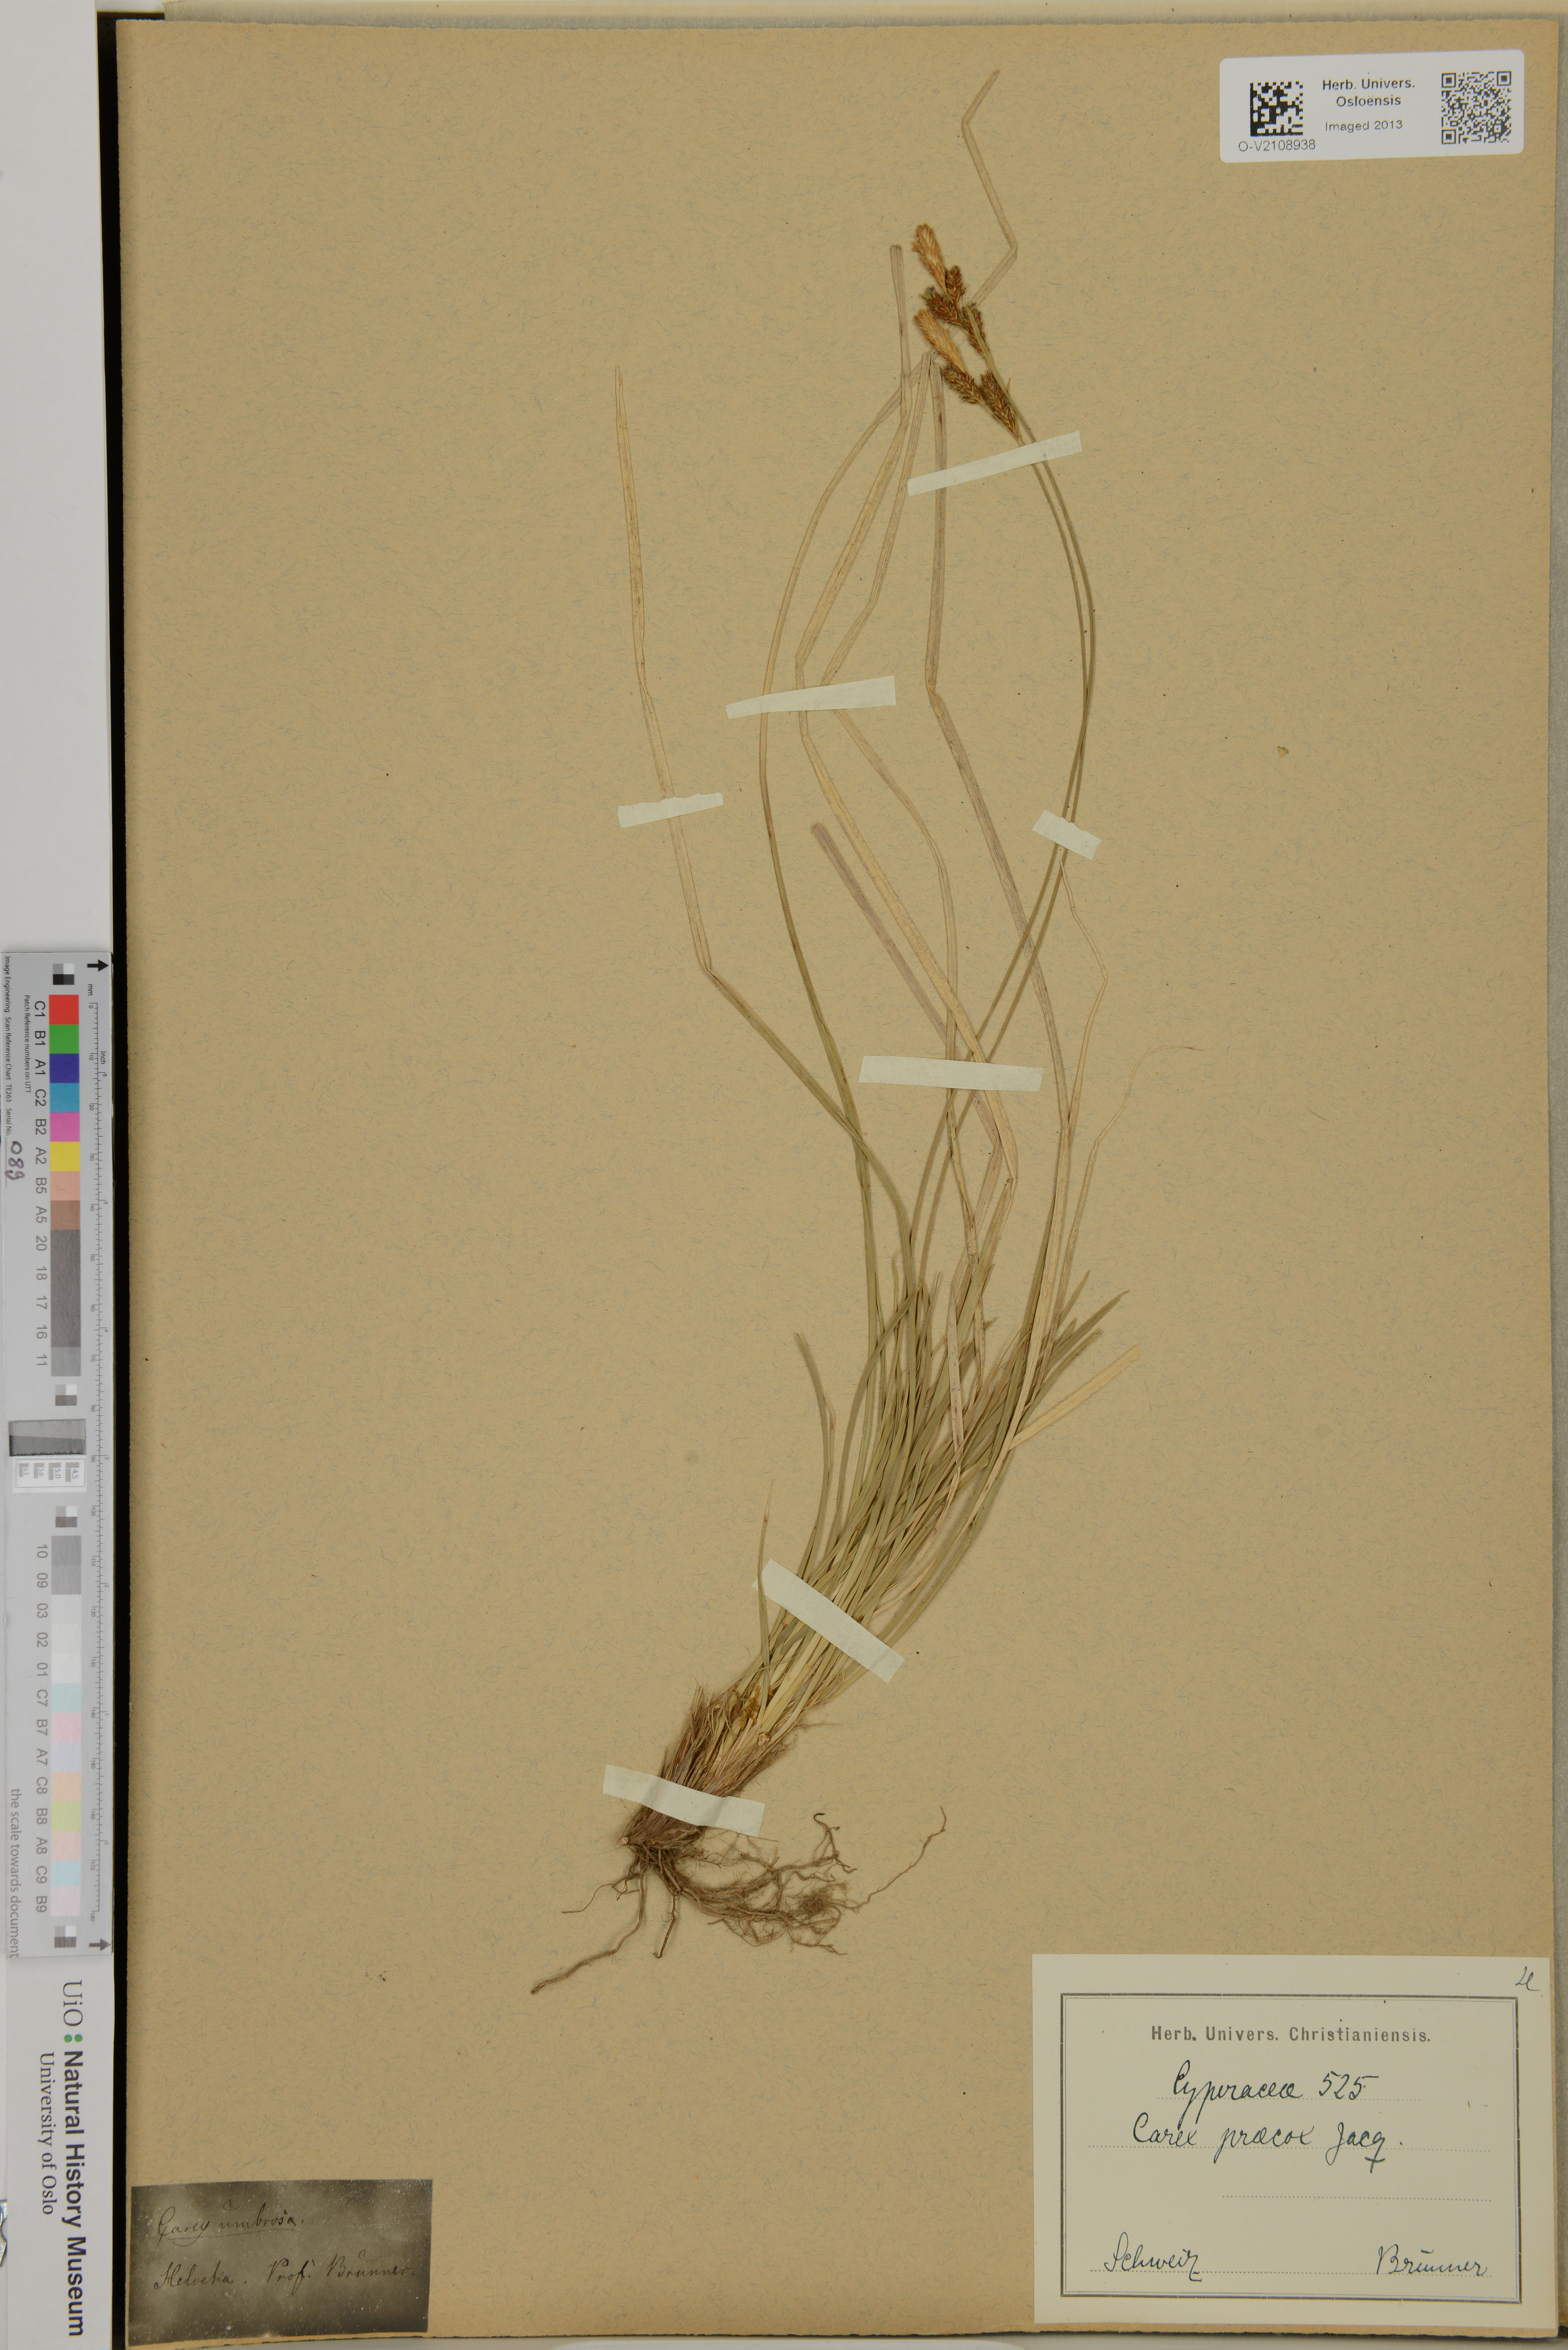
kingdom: Plantae
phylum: Tracheophyta
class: Liliopsida
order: Poales
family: Cyperaceae
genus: Carex
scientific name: Carex praecox
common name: Early sedge
